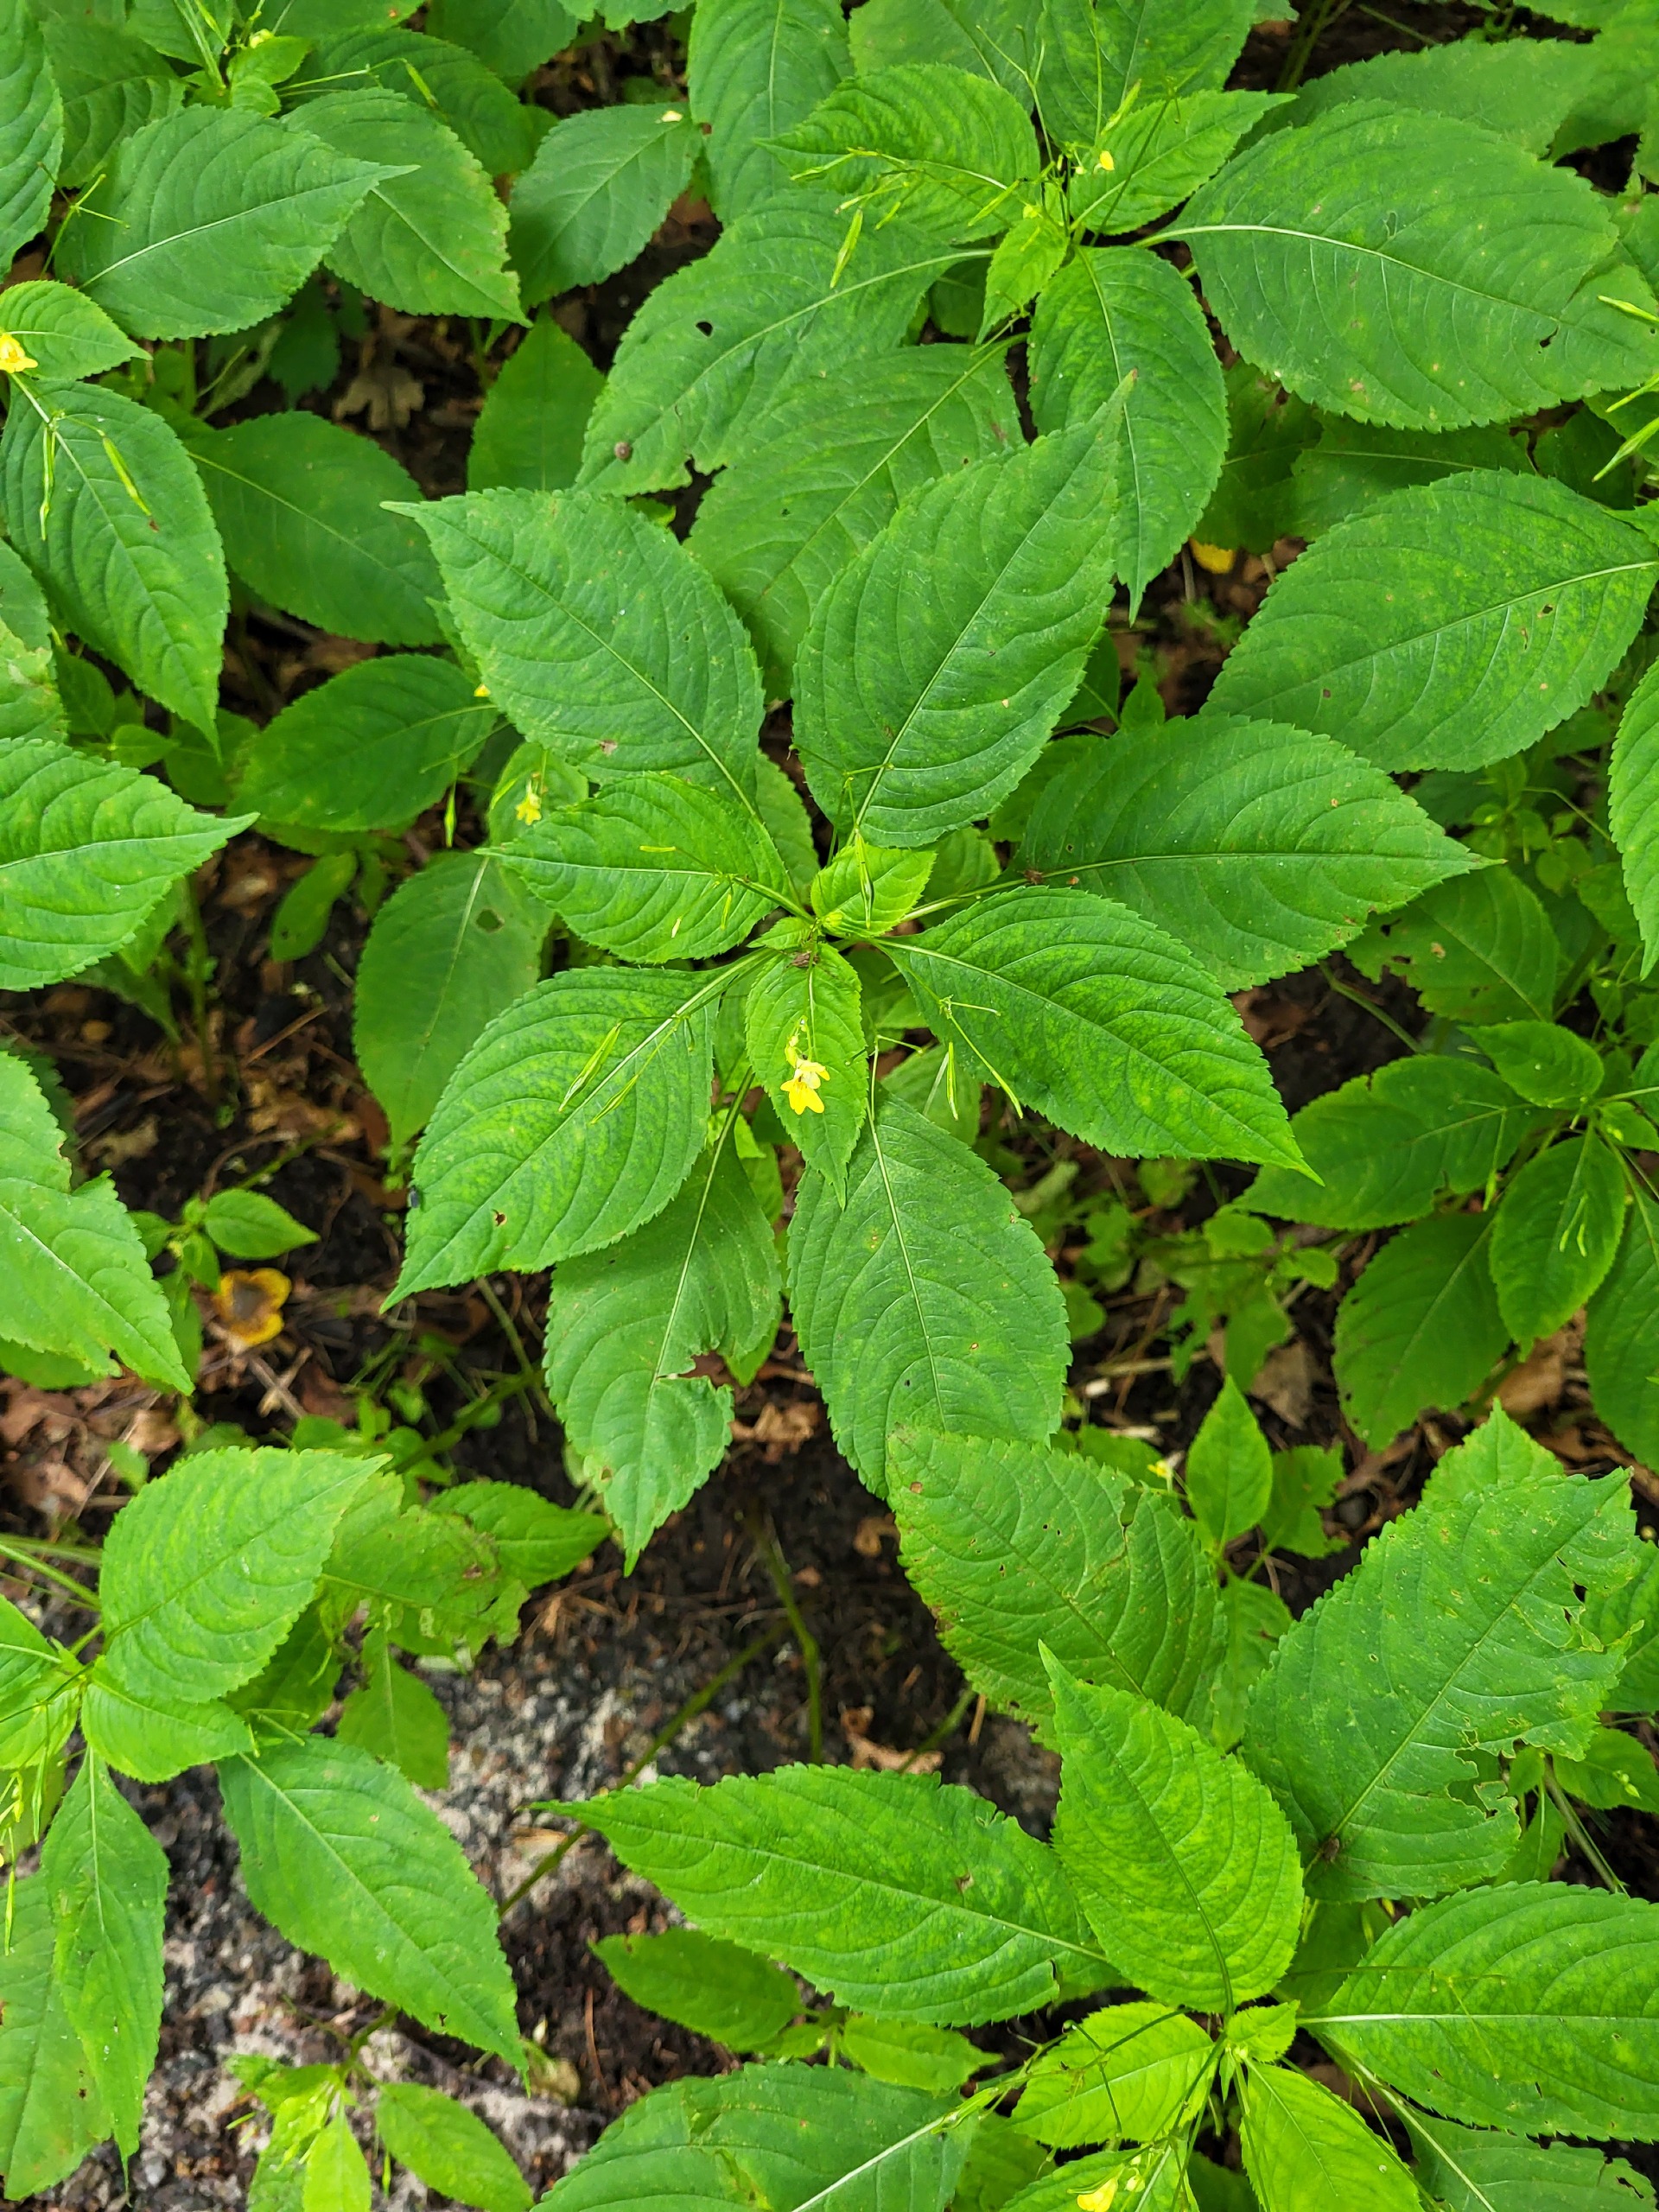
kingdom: Plantae
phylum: Tracheophyta
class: Magnoliopsida
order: Ericales
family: Balsaminaceae
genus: Impatiens
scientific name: Impatiens parviflora
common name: Småblomstret balsamin
